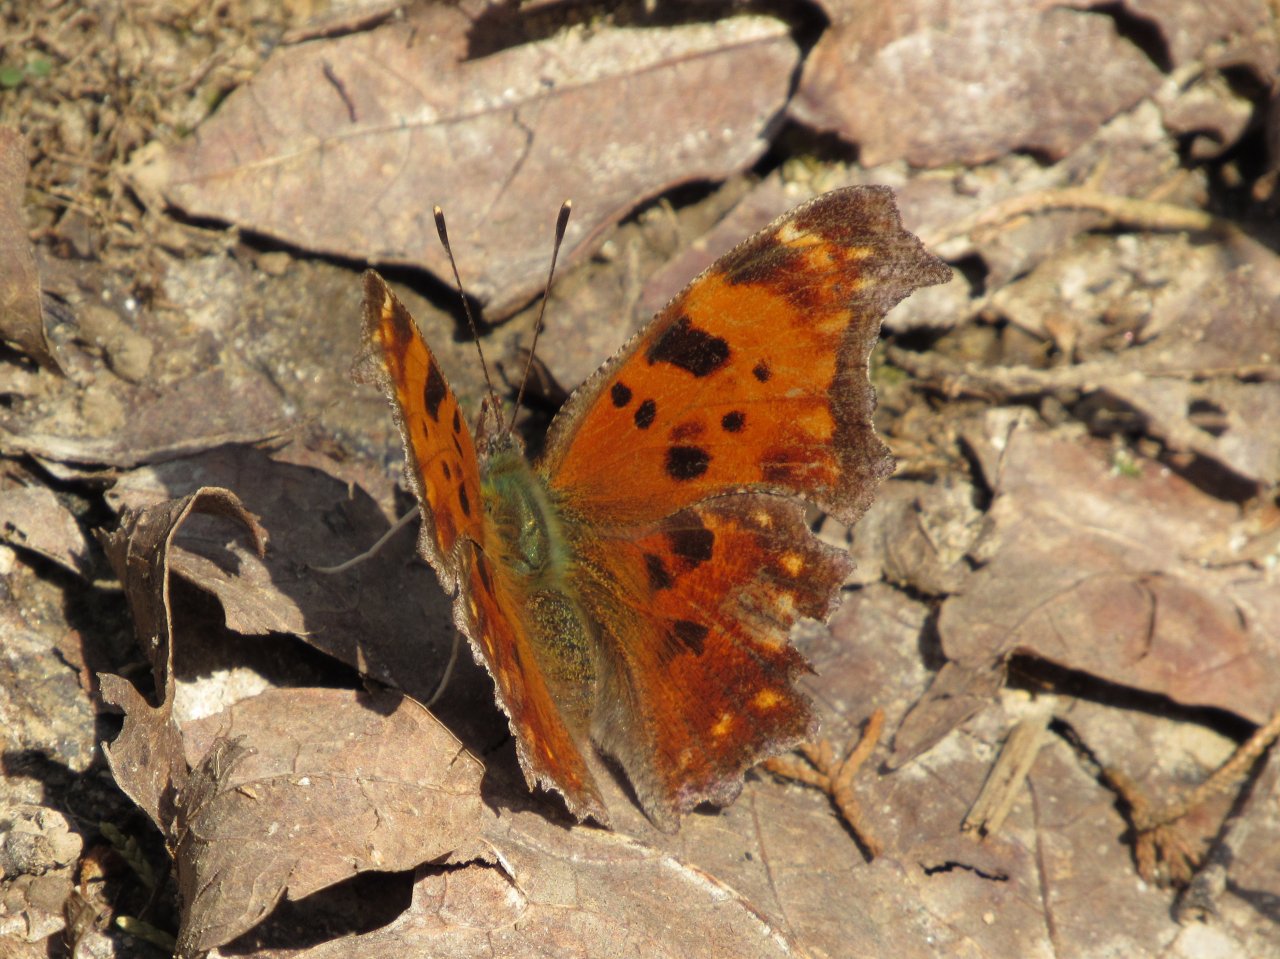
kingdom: Animalia
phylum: Arthropoda
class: Insecta
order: Lepidoptera
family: Nymphalidae
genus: Polygonia
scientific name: Polygonia comma
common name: Eastern Comma
